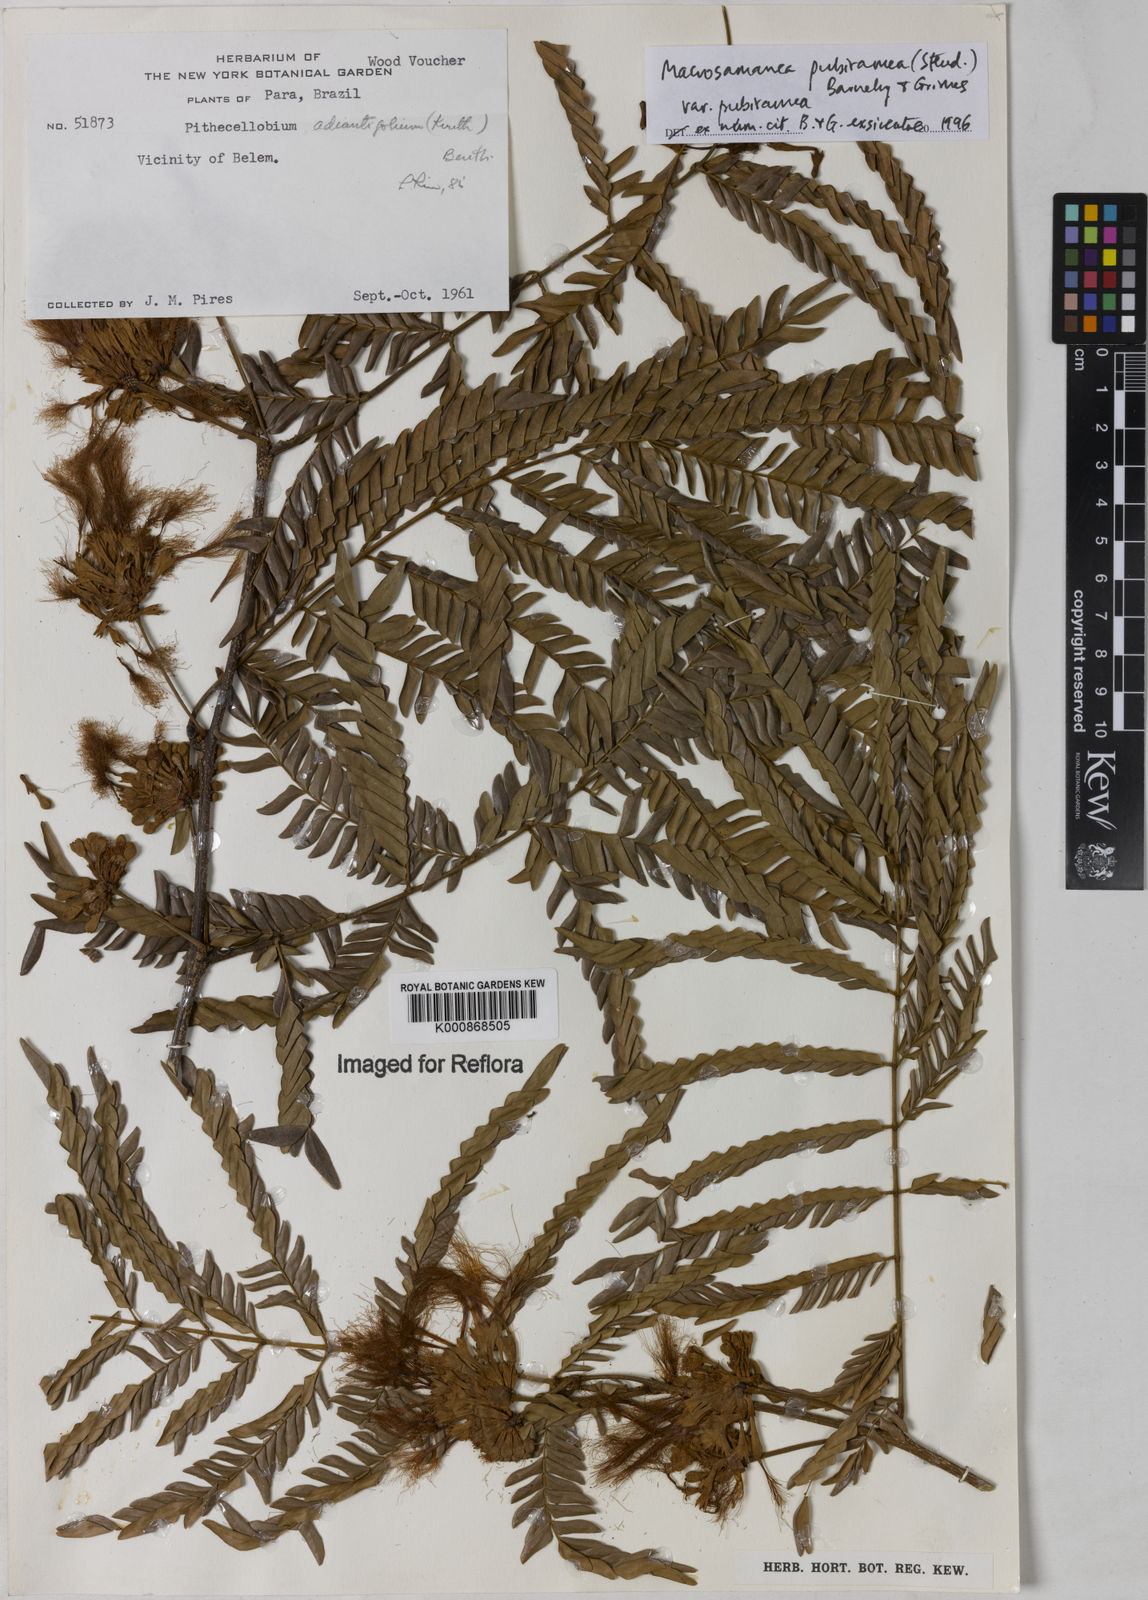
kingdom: Plantae
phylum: Tracheophyta
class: Magnoliopsida
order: Fabales
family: Fabaceae
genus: Macrosamanea
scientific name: Macrosamanea pubiramea
